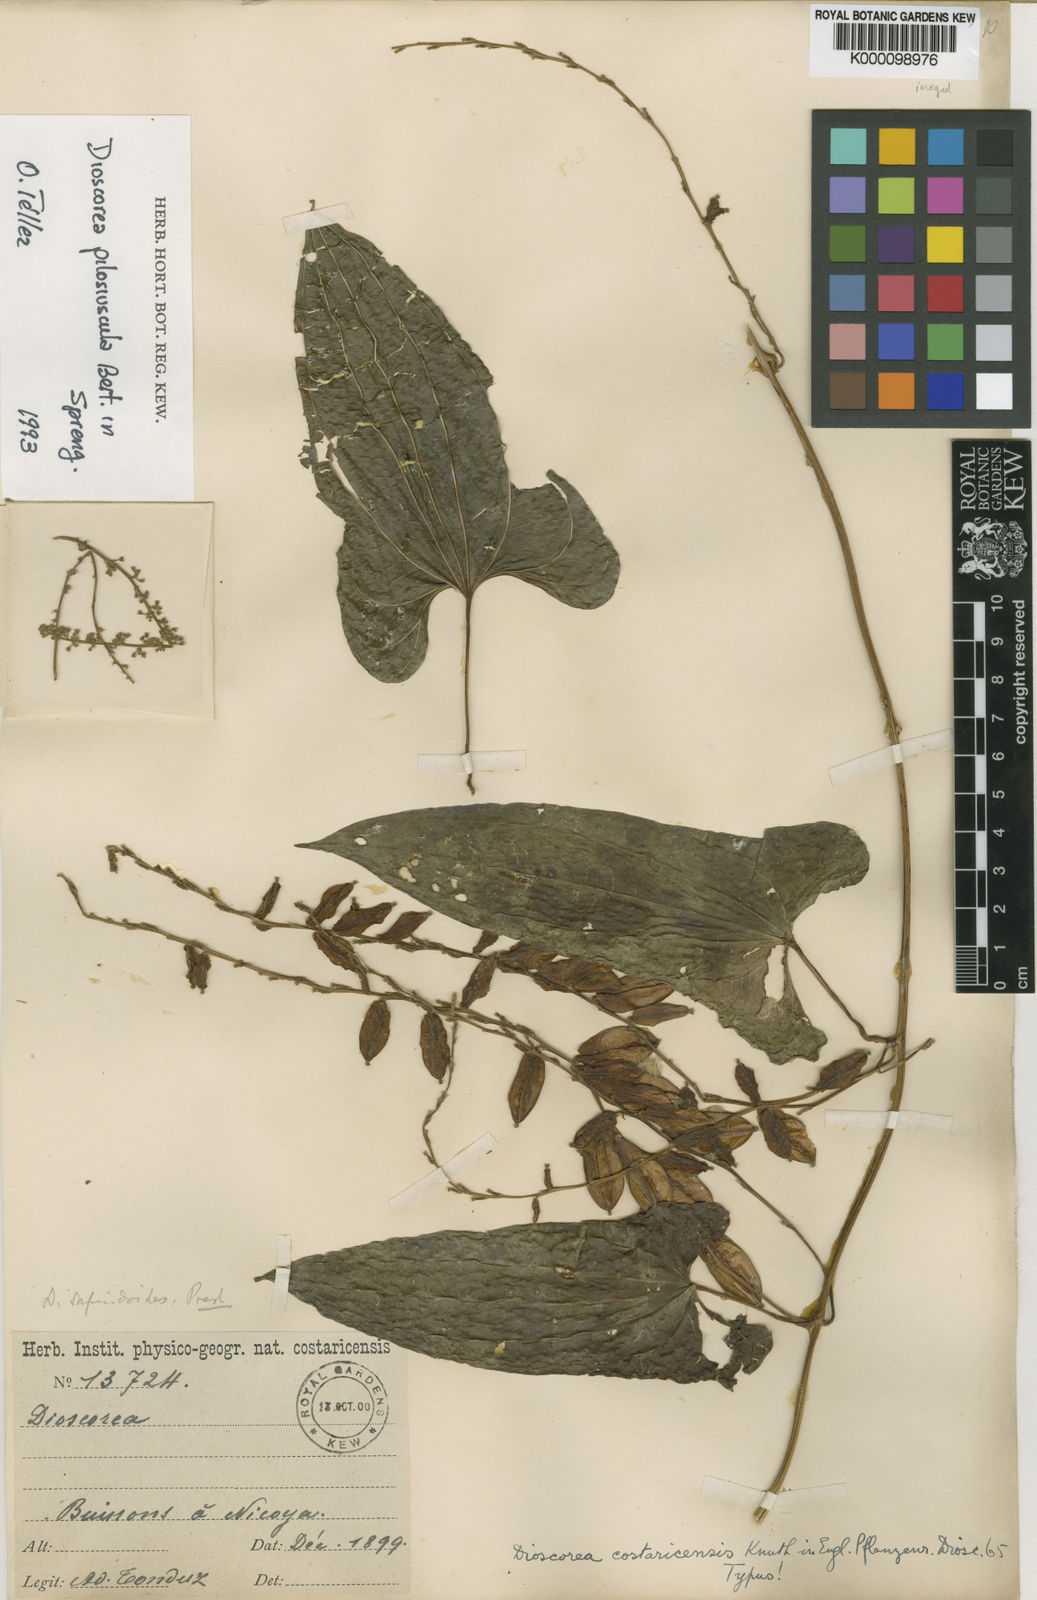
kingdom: Plantae
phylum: Tracheophyta
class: Liliopsida
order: Dioscoreales
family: Dioscoreaceae
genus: Dioscorea
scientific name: Dioscorea
